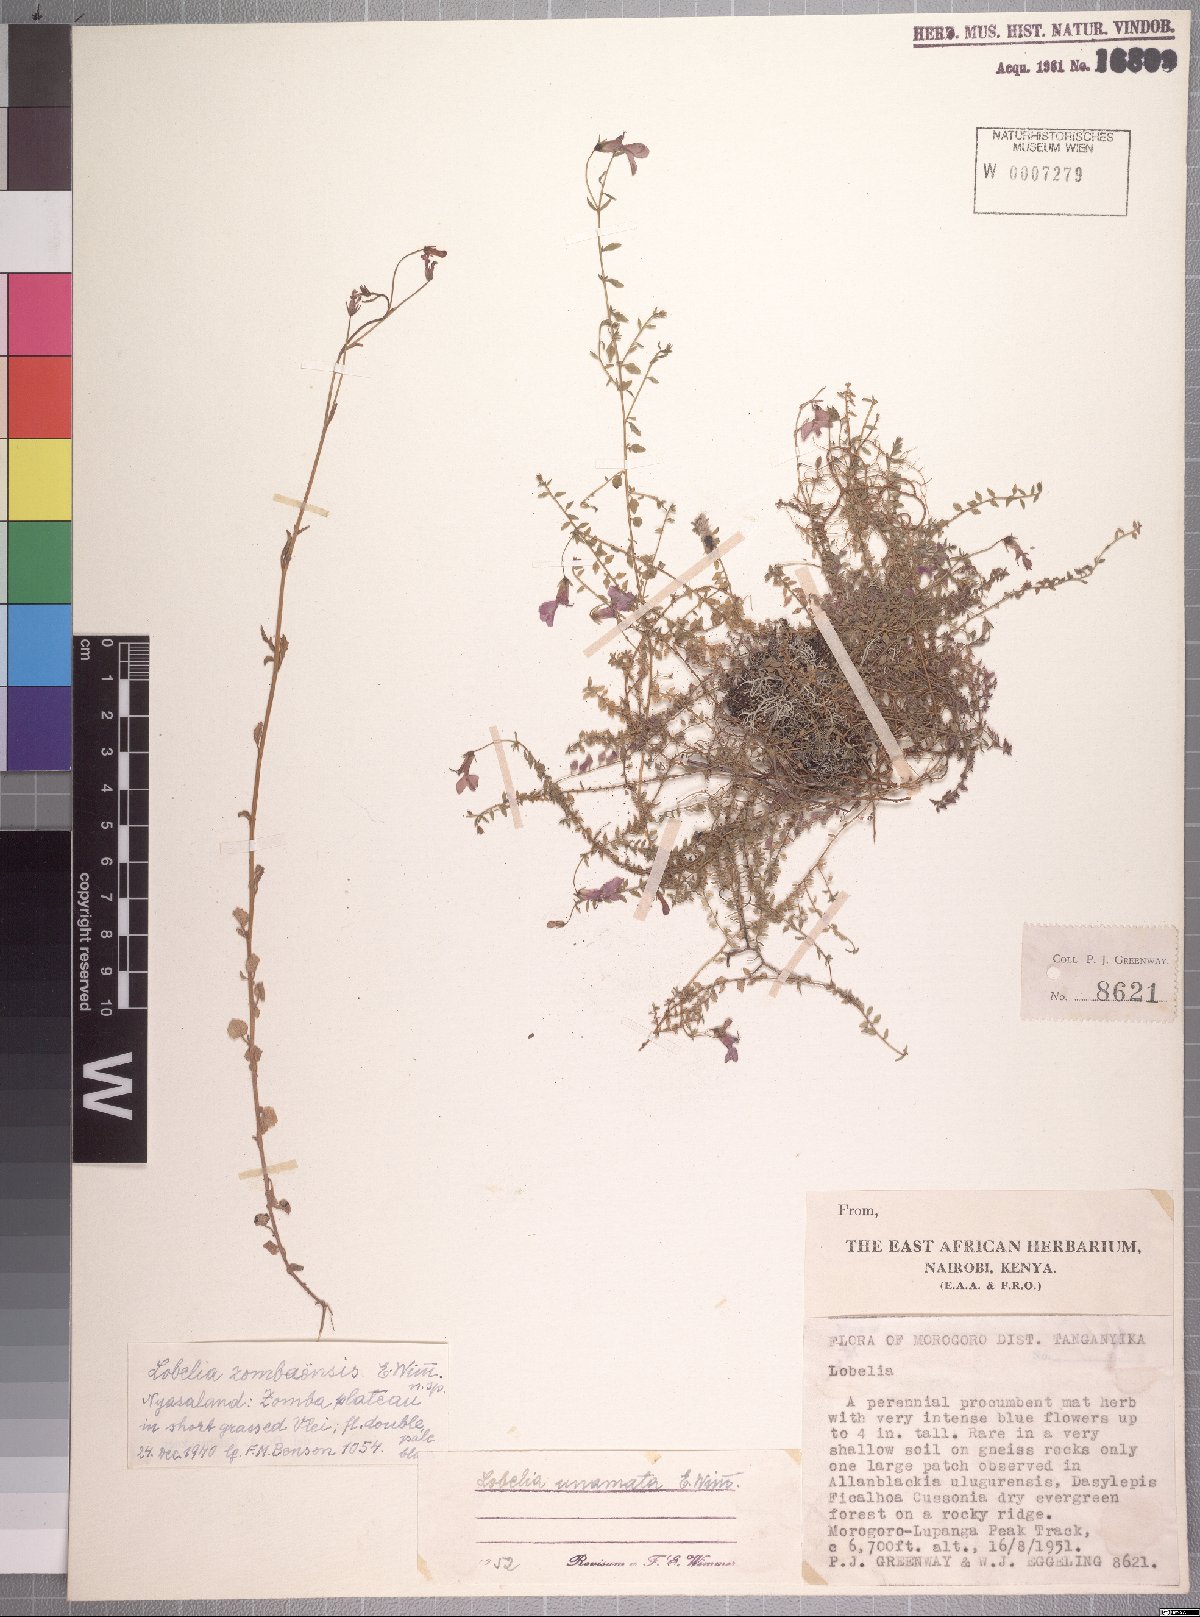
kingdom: Plantae
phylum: Tracheophyta
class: Magnoliopsida
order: Asterales
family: Campanulaceae
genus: Lobelia
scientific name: Lobelia trullifolia
